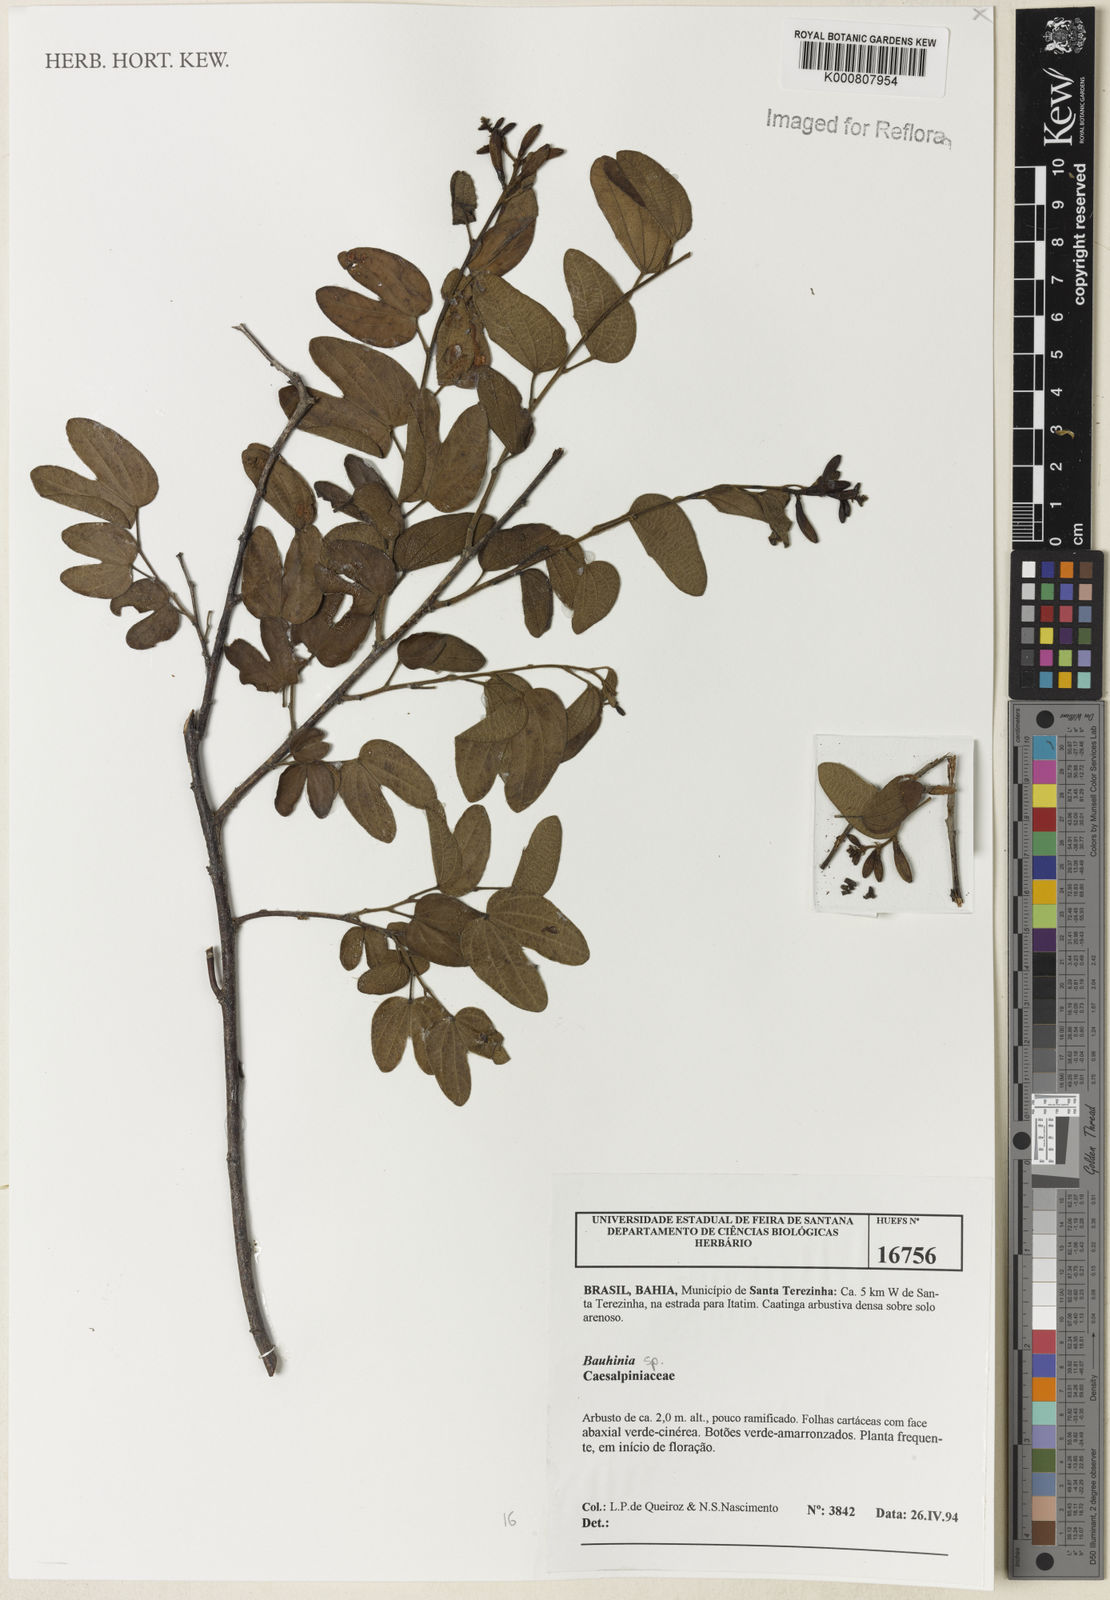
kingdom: Plantae
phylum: Tracheophyta
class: Magnoliopsida
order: Fabales
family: Fabaceae
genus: Bauhinia
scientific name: Bauhinia
